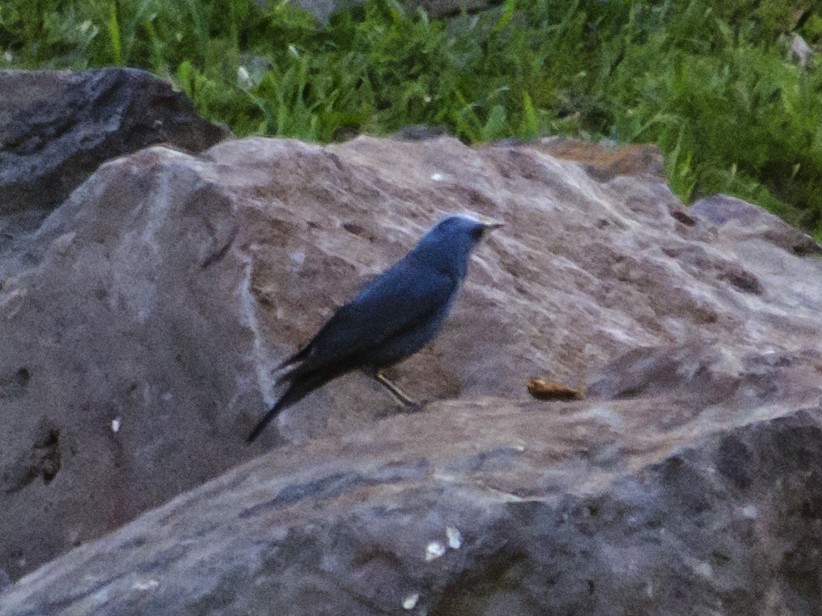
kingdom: Animalia
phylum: Chordata
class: Aves
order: Passeriformes
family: Muscicapidae
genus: Monticola
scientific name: Monticola solitarius
